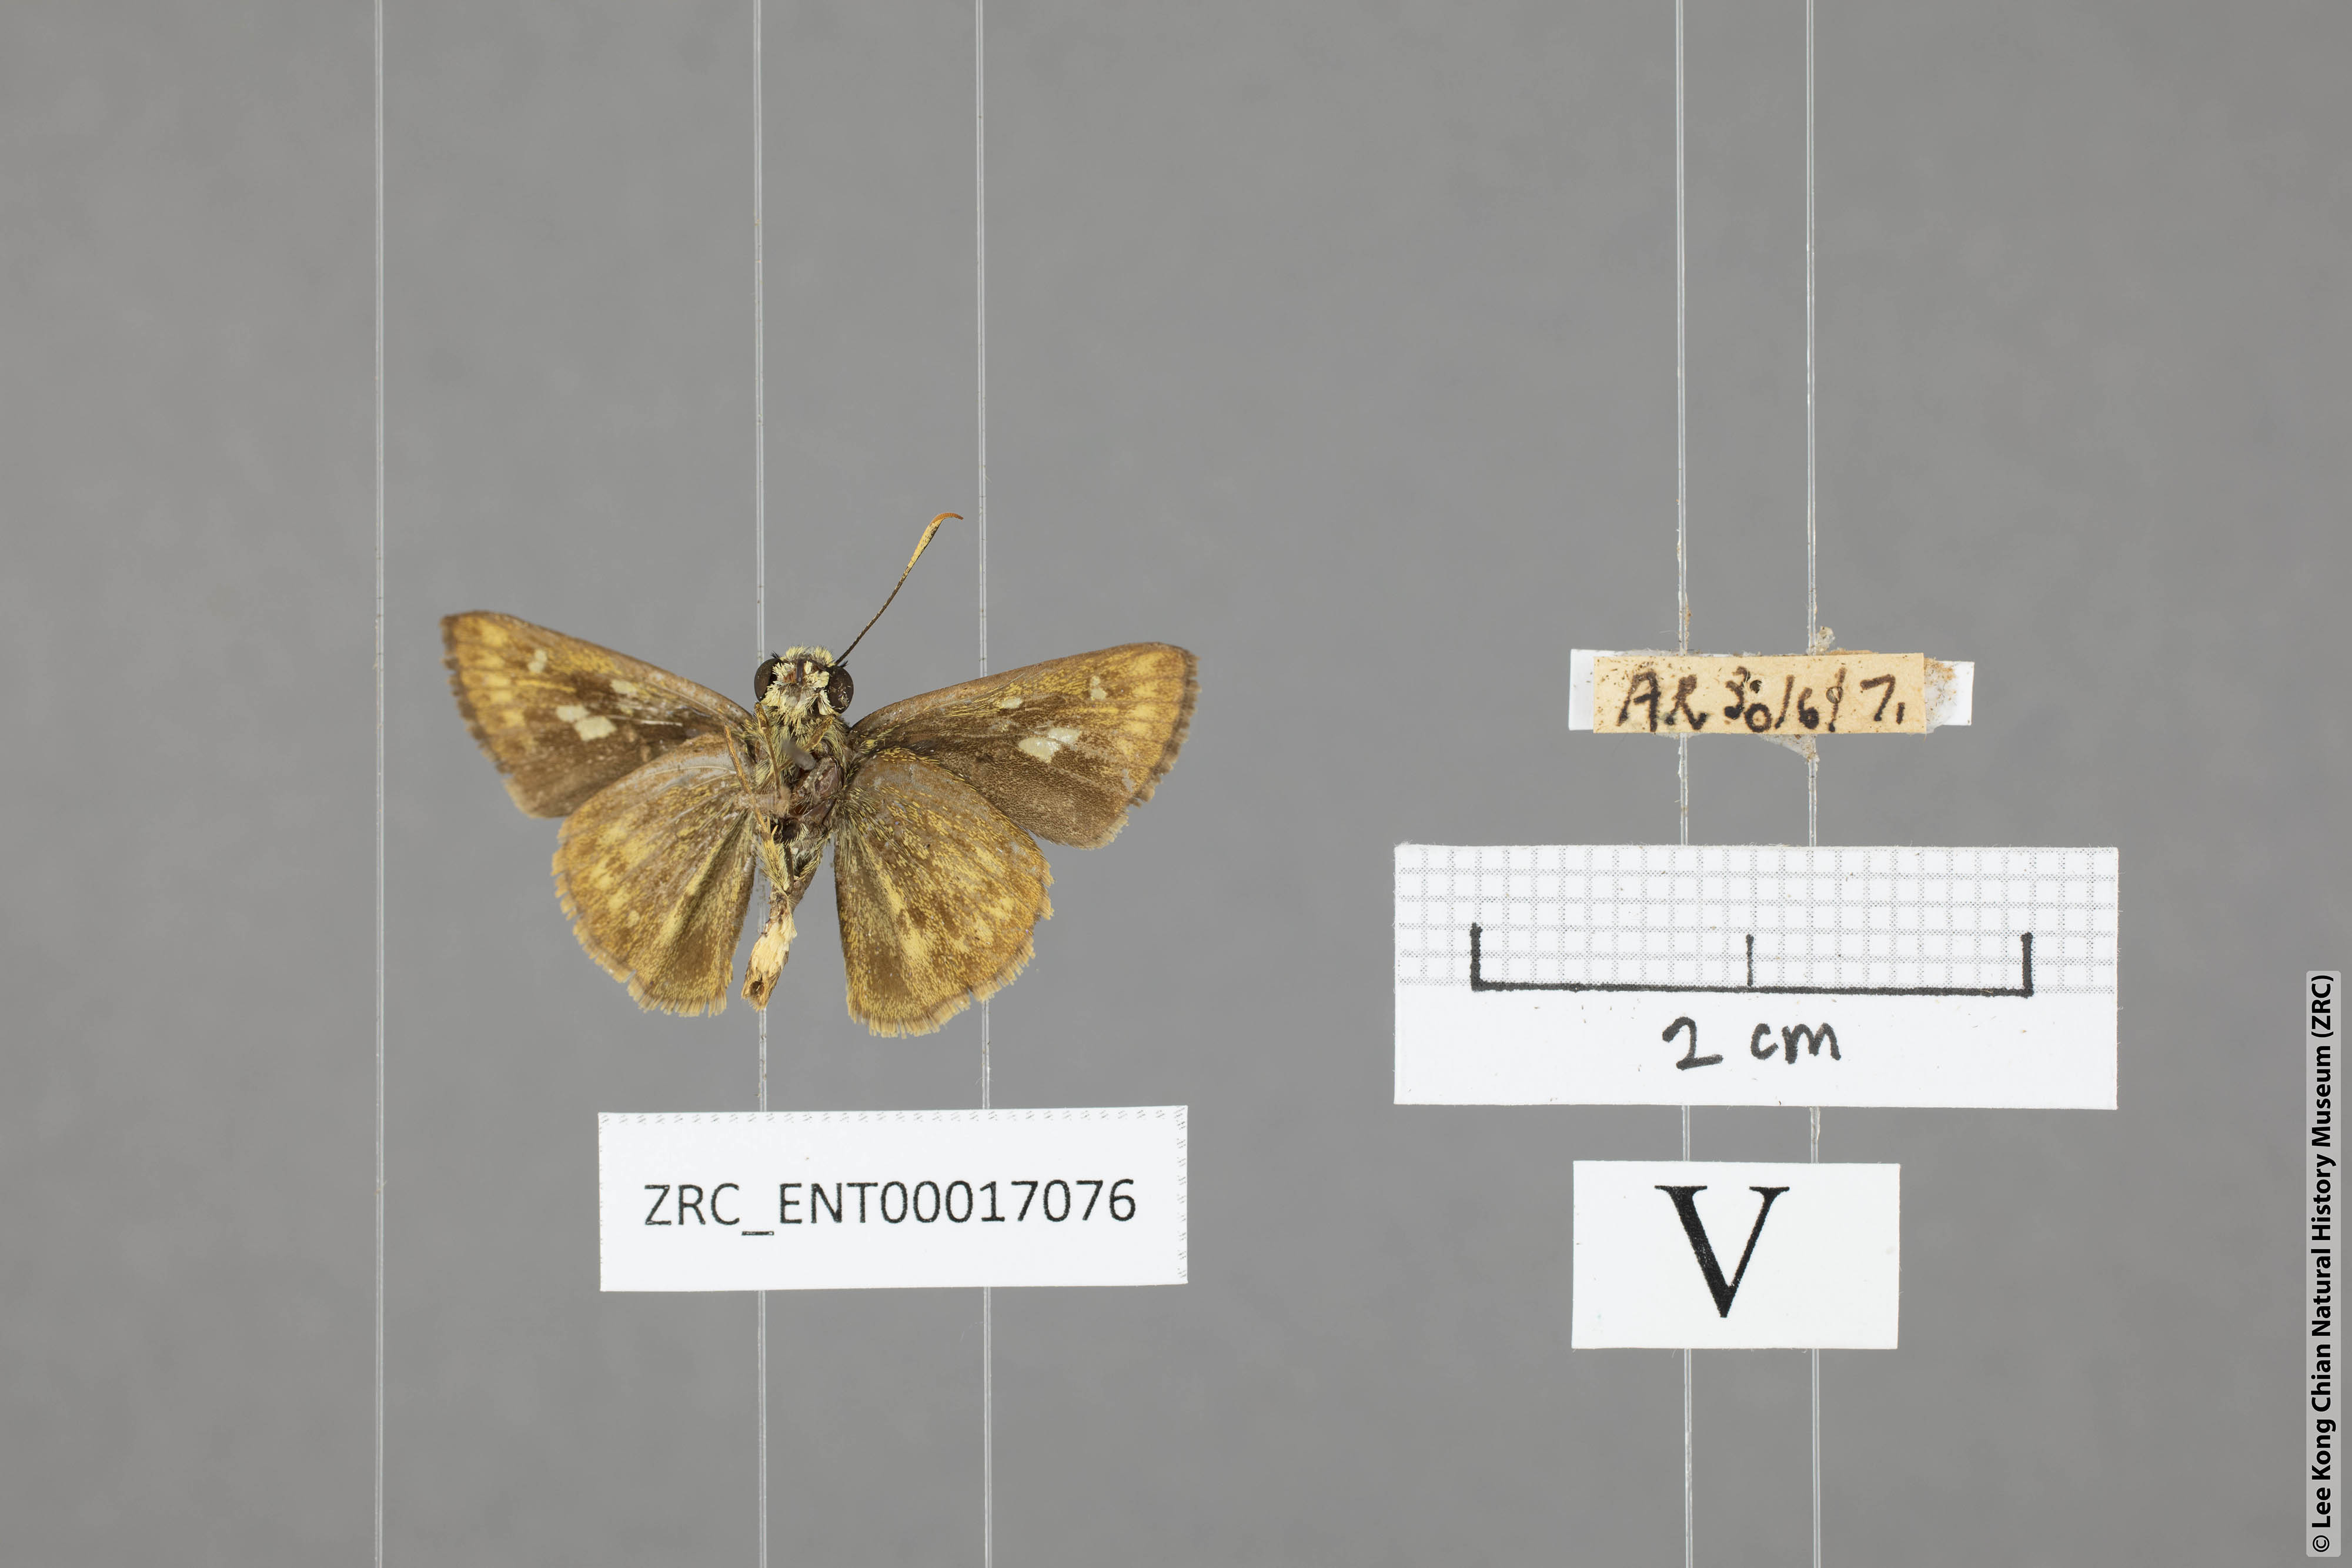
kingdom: Animalia
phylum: Arthropoda
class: Insecta
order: Lepidoptera
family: Hesperiidae
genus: Halpe
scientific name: Halpe veluvana
